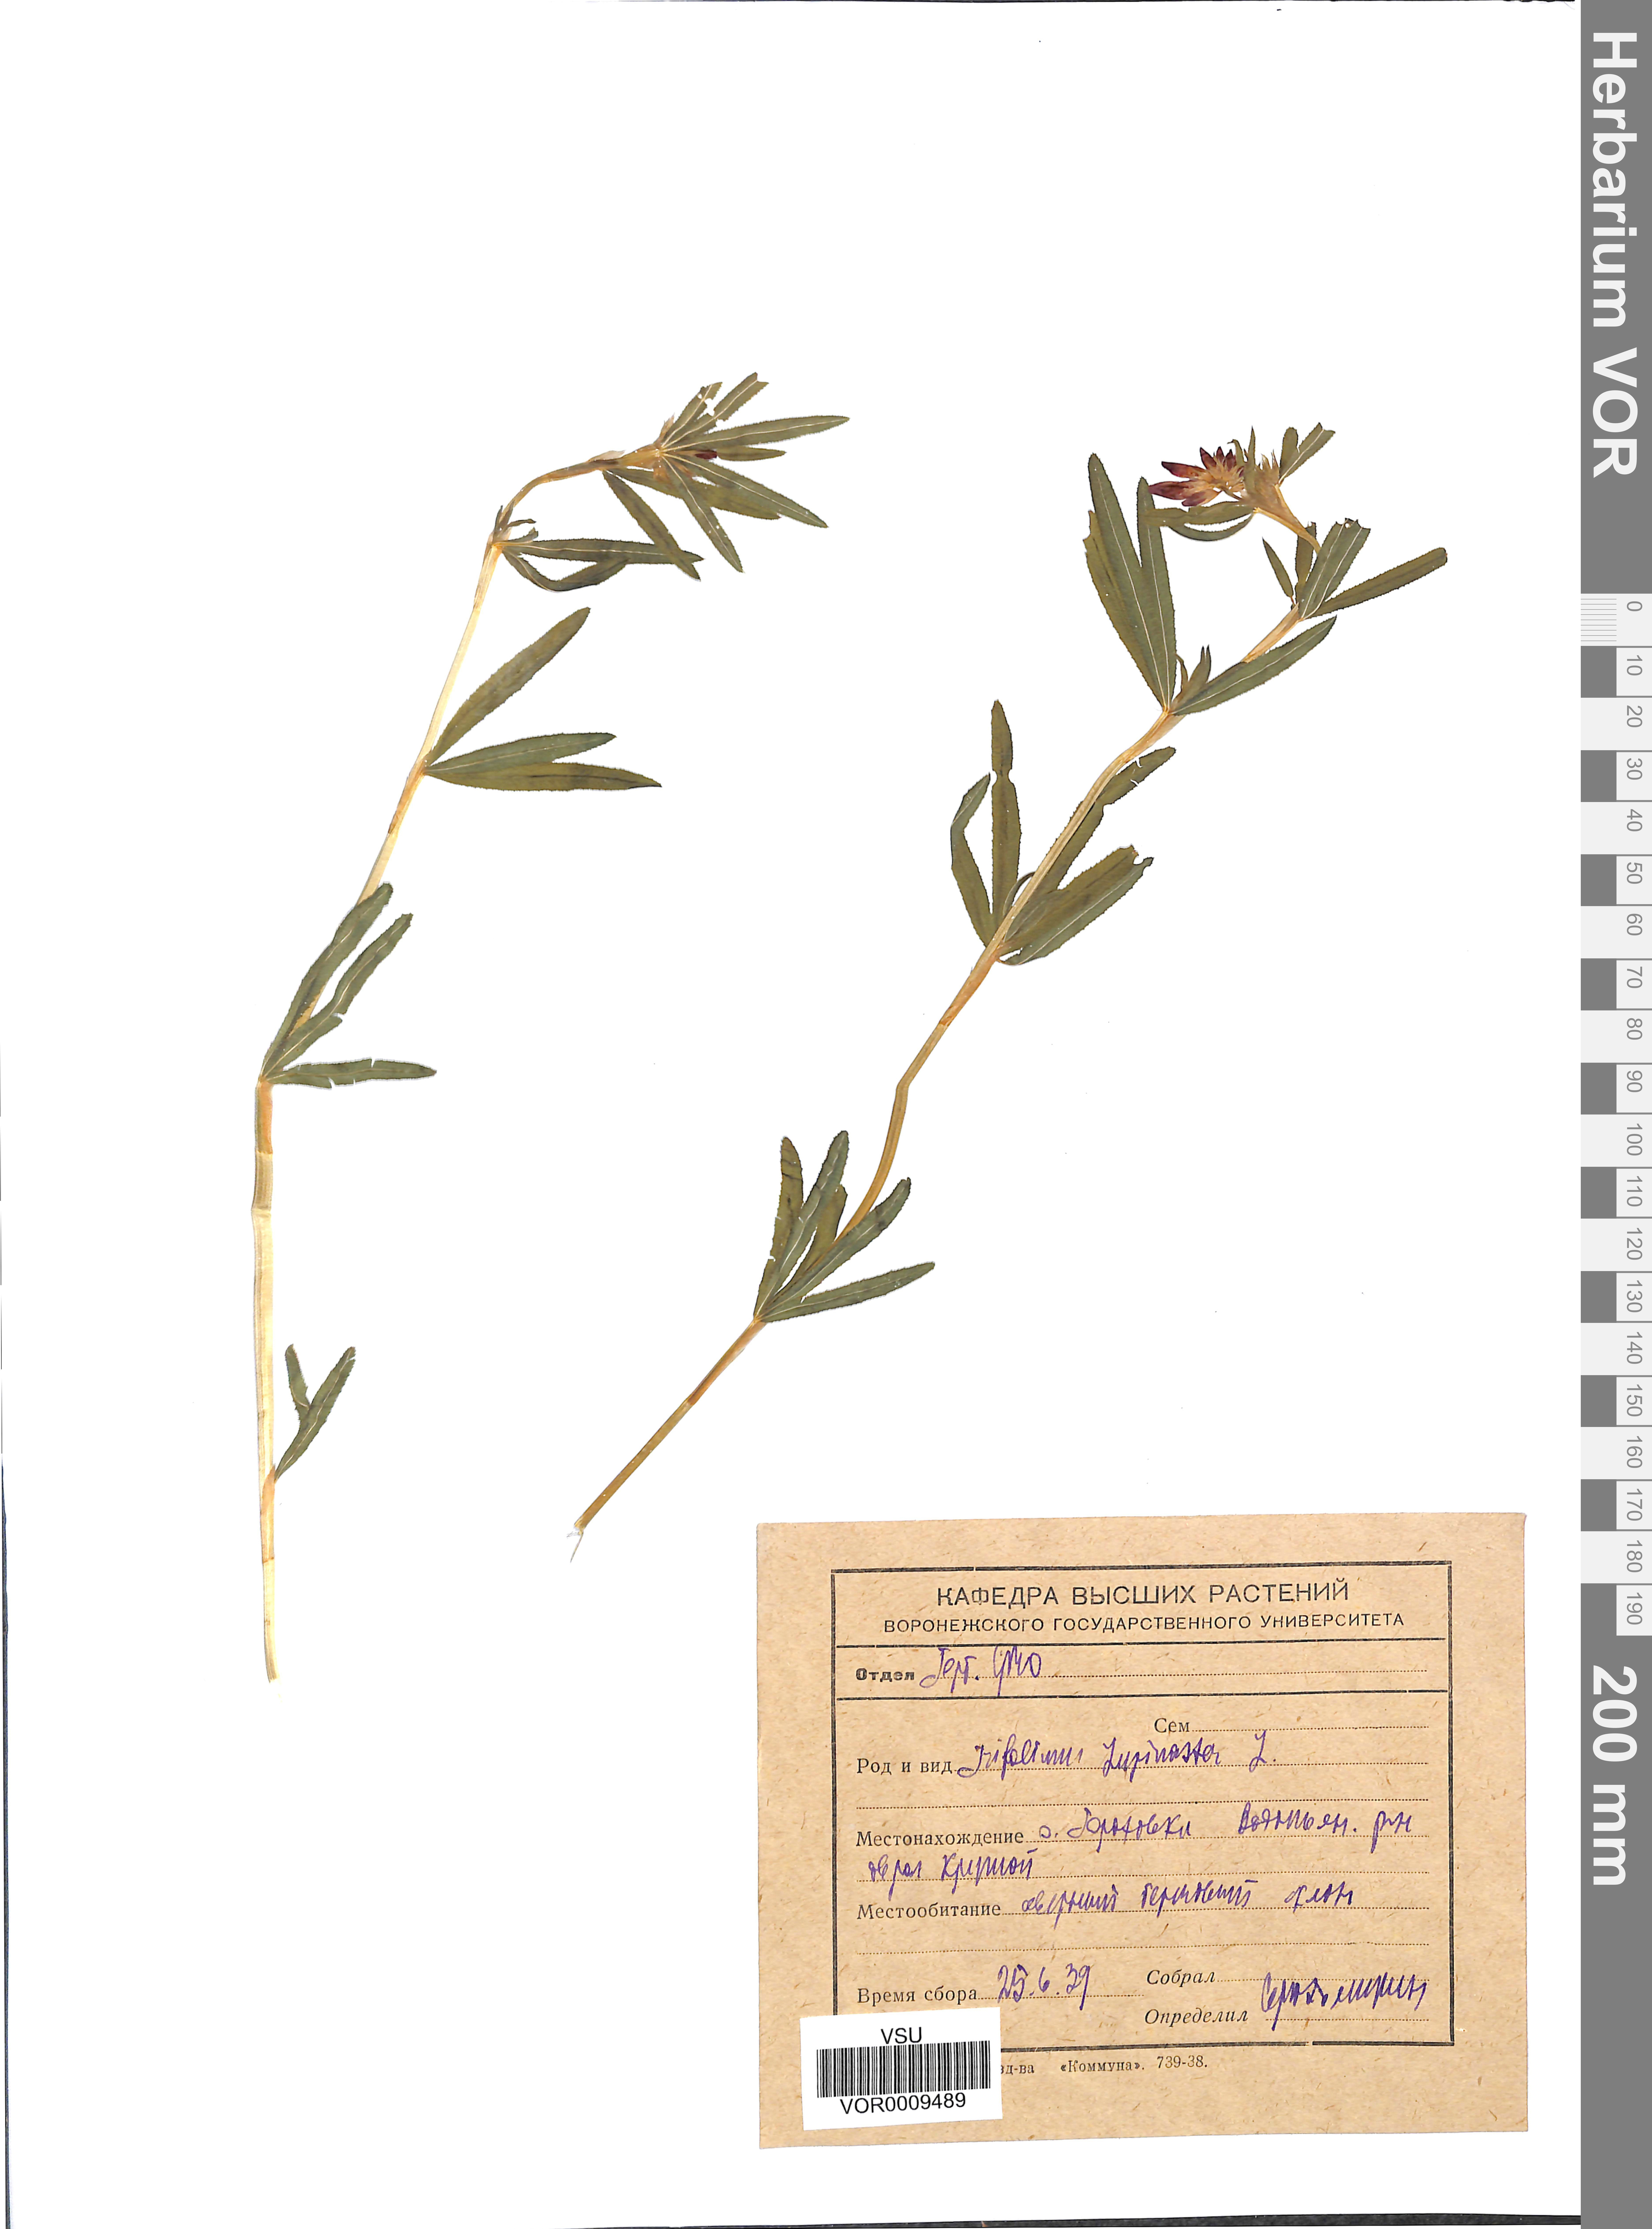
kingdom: Plantae
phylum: Tracheophyta
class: Magnoliopsida
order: Fabales
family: Fabaceae
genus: Trifolium
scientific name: Trifolium lupinaster
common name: Lupine clover
